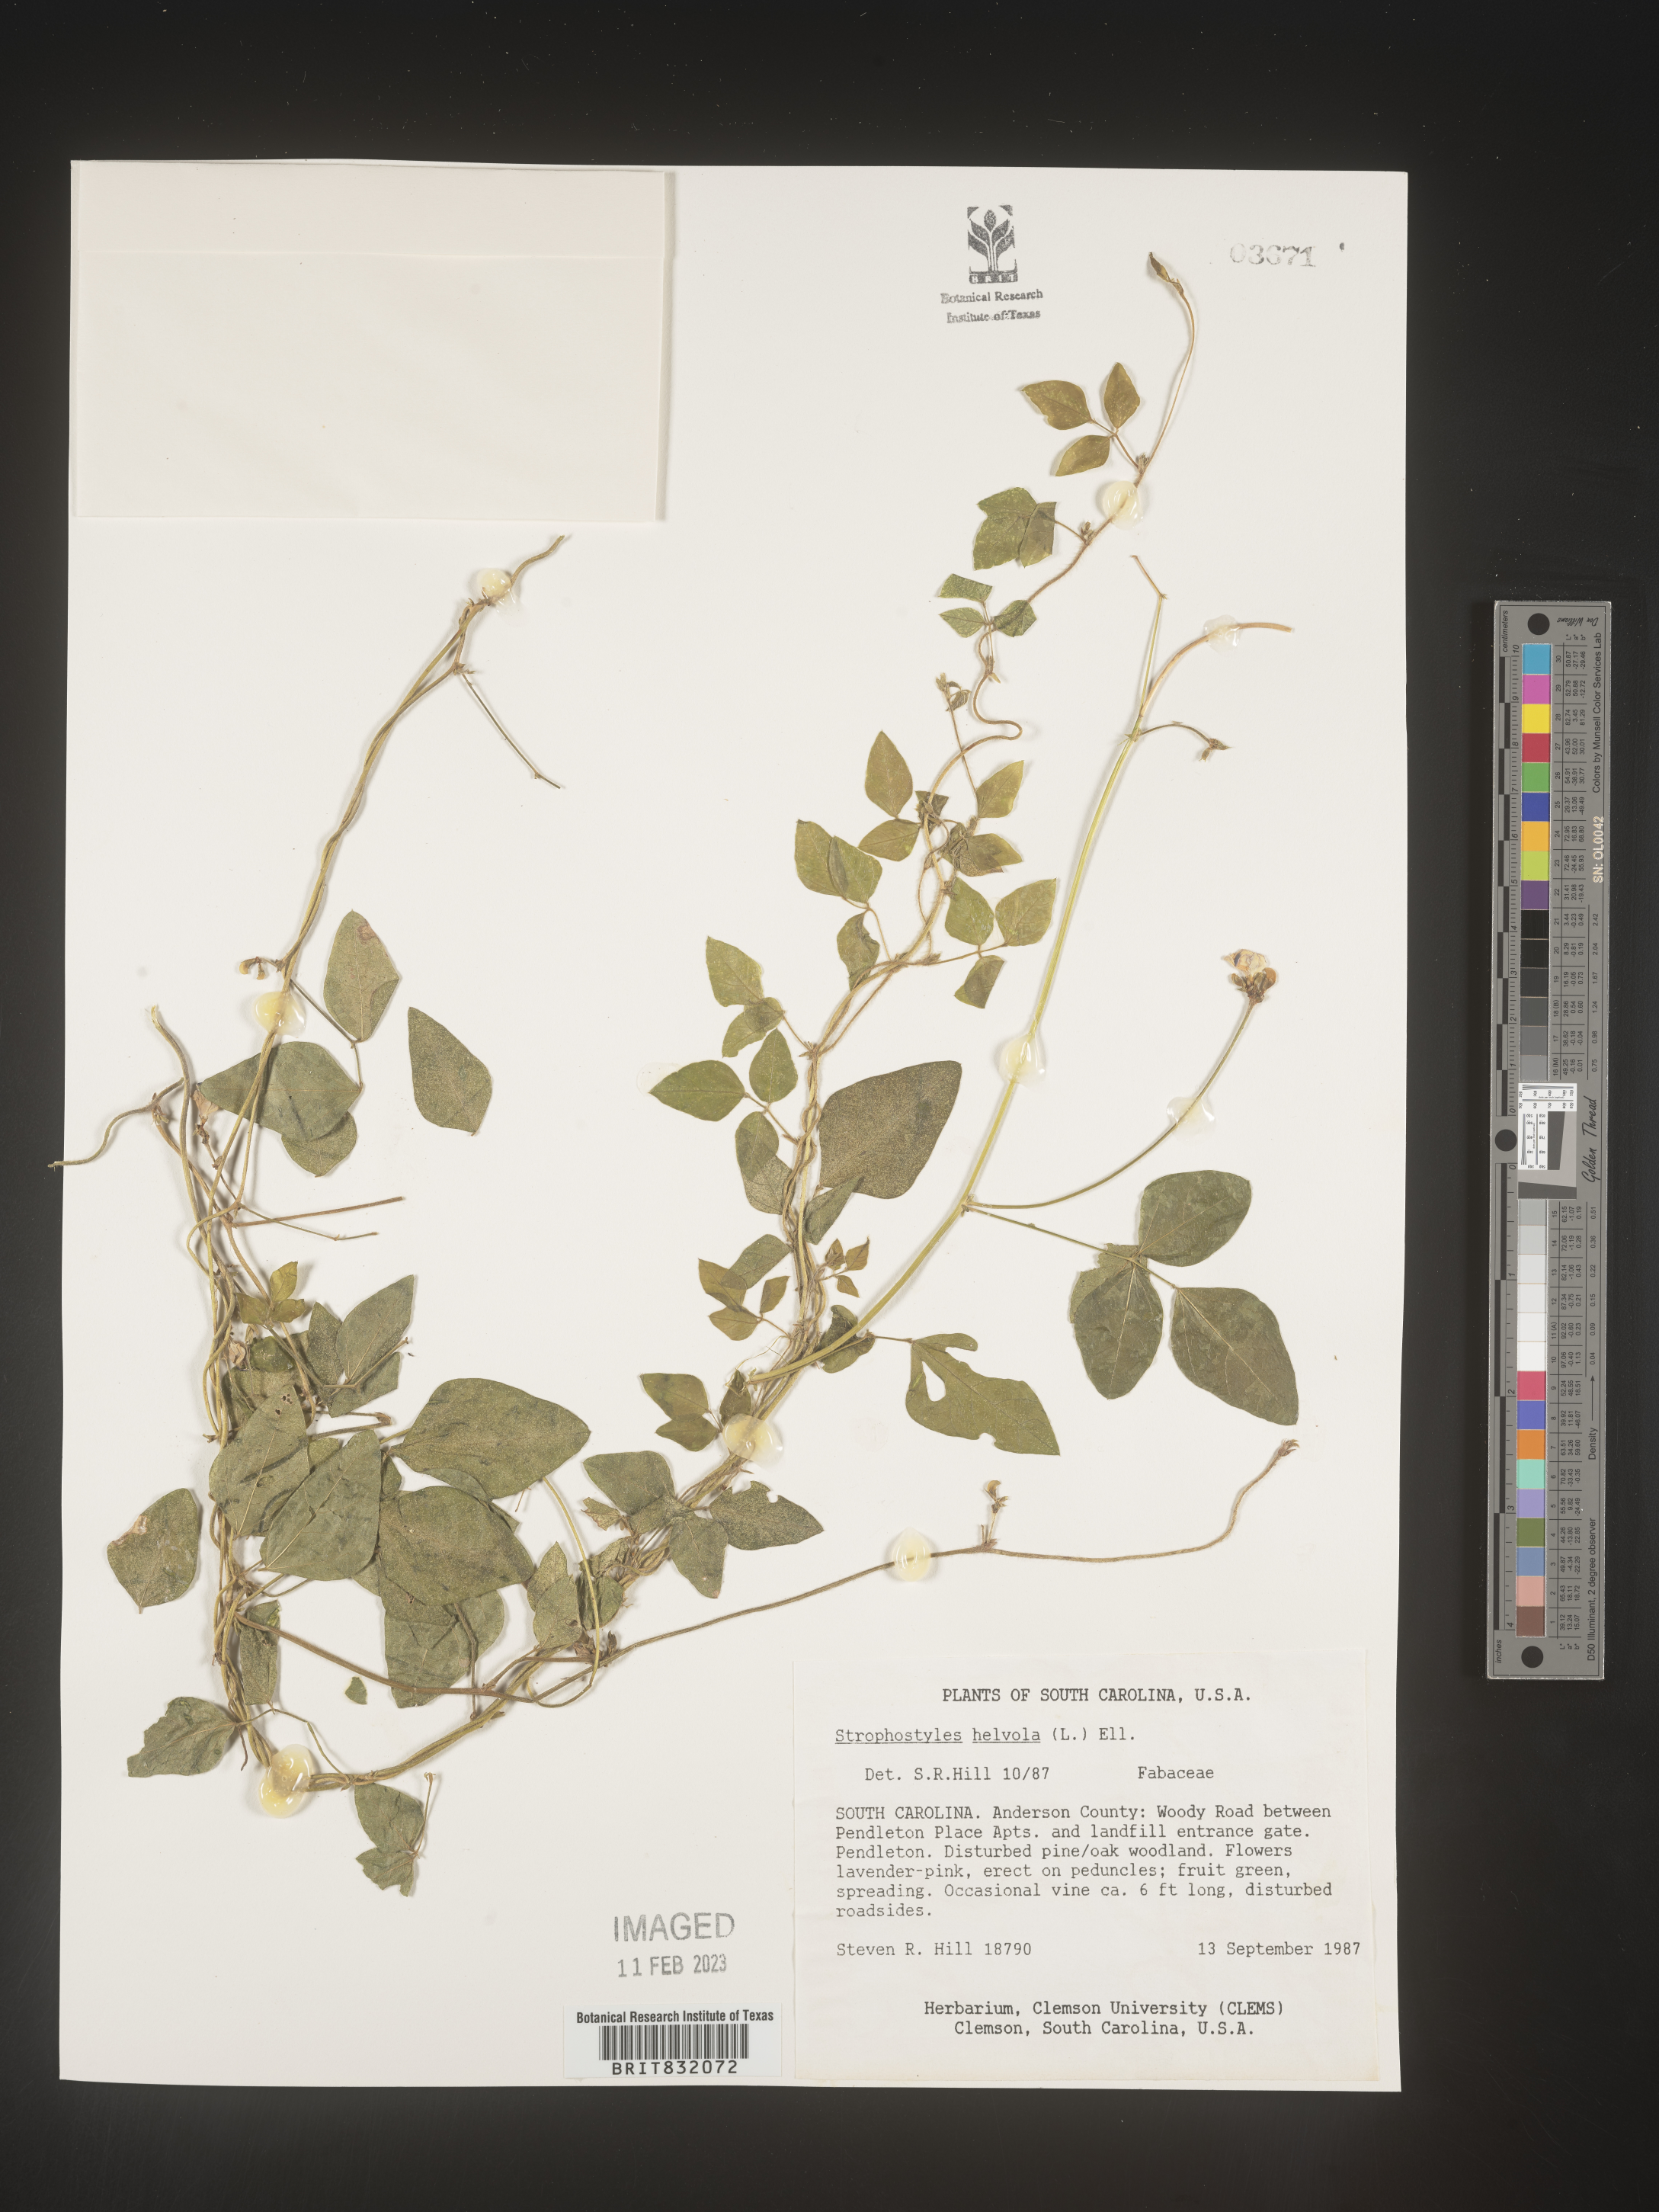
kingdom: Plantae
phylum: Tracheophyta
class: Magnoliopsida
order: Fabales
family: Fabaceae
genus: Strophostyles
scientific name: Strophostyles helvola
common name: Trailing wild bean
